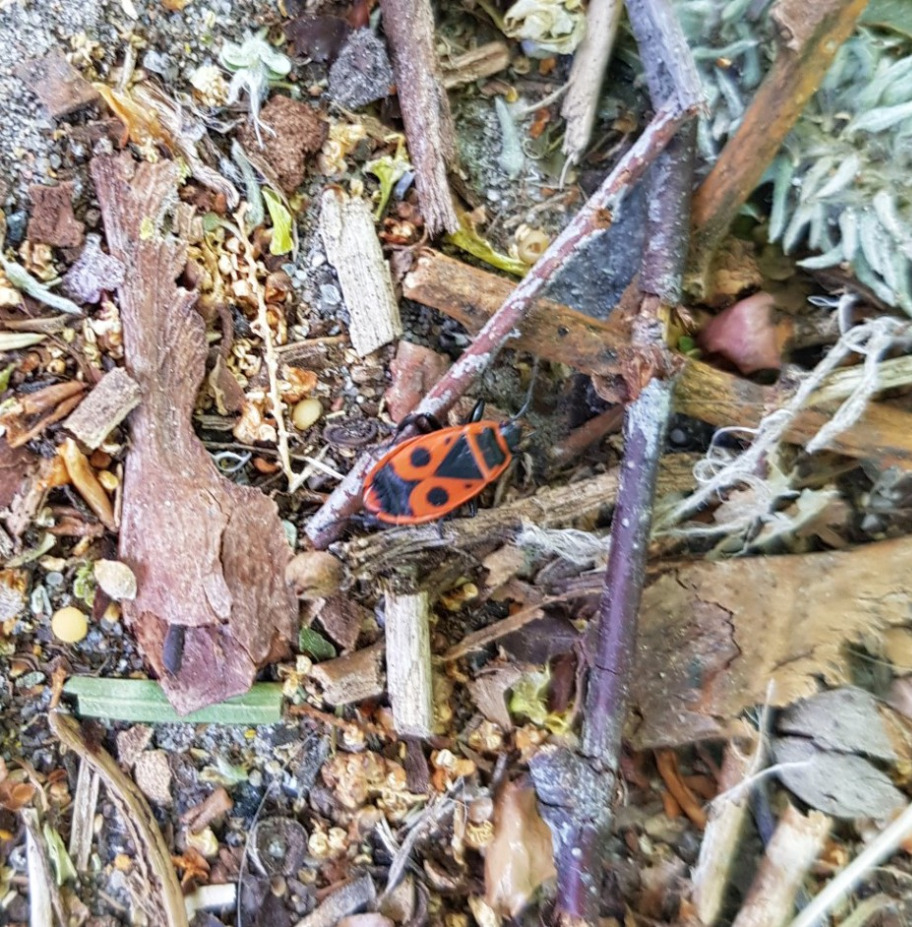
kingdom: Animalia
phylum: Arthropoda
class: Insecta
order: Hemiptera
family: Pyrrhocoridae
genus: Pyrrhocoris
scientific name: Pyrrhocoris apterus
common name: Ildtæge
